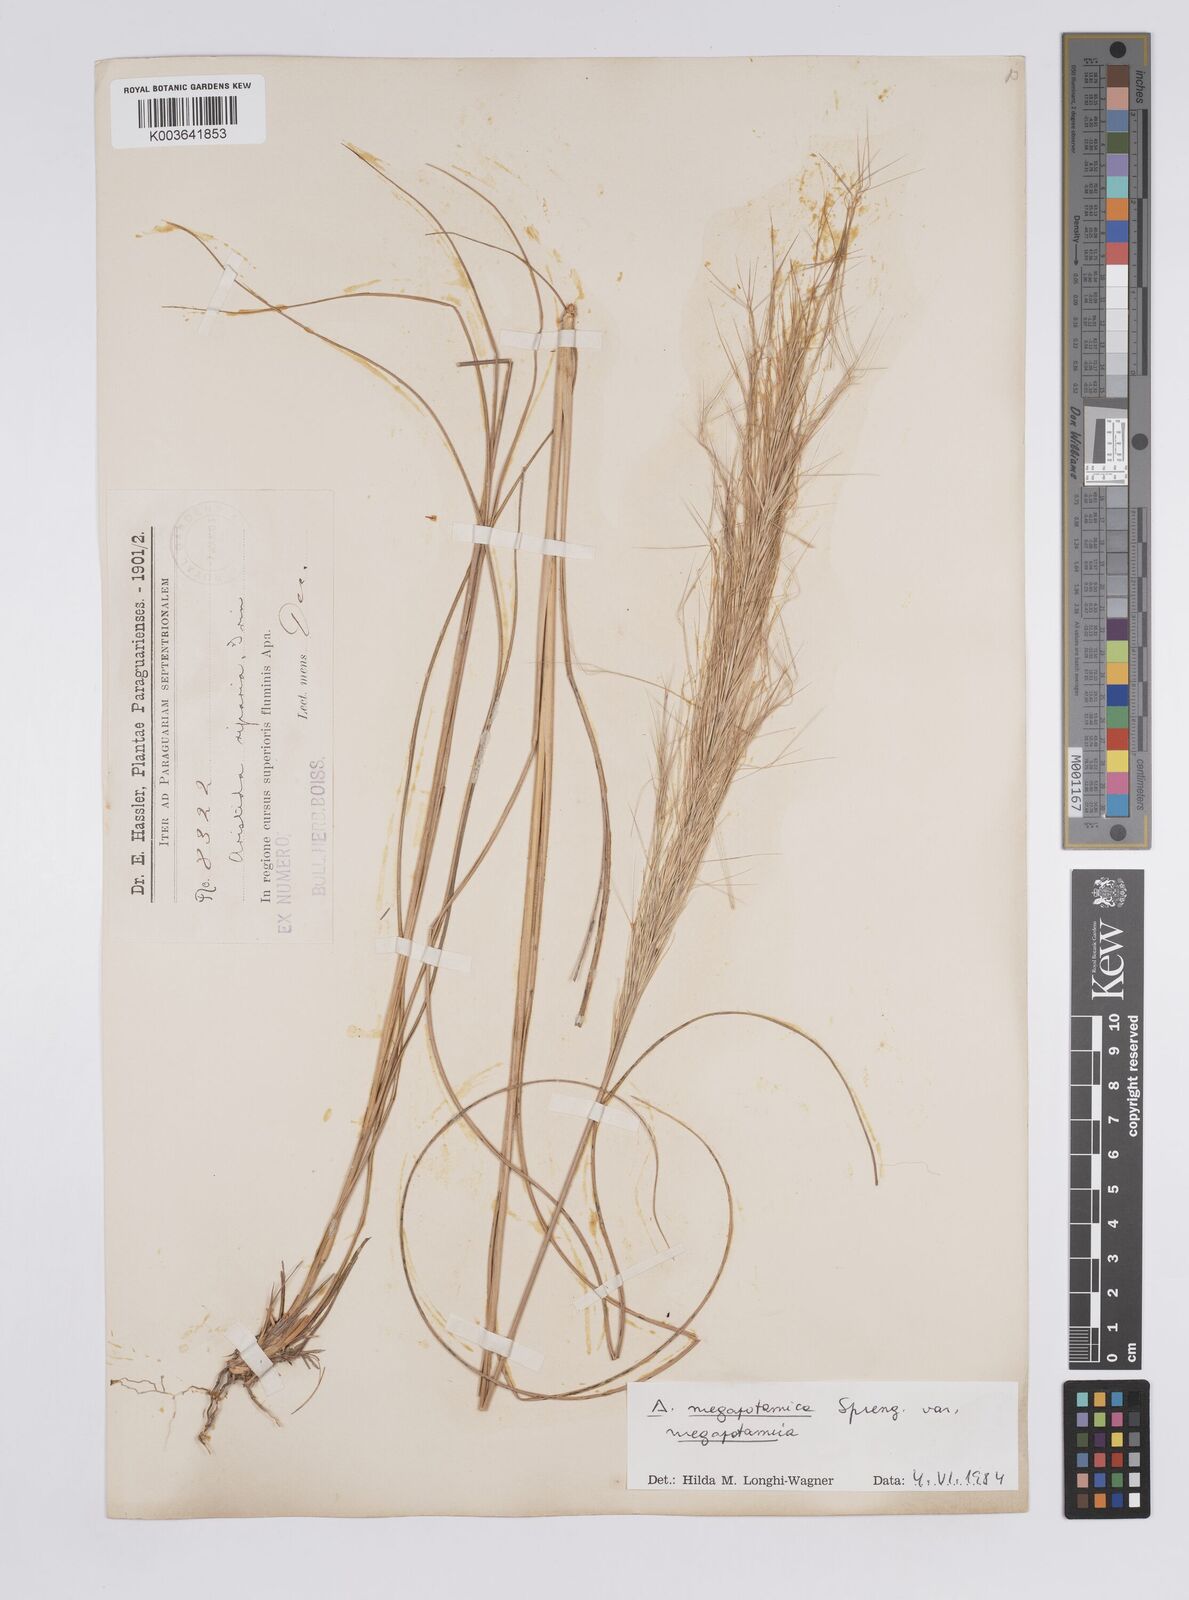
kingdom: Plantae
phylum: Tracheophyta
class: Liliopsida
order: Poales
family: Poaceae
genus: Aristida
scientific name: Aristida megapotamica
